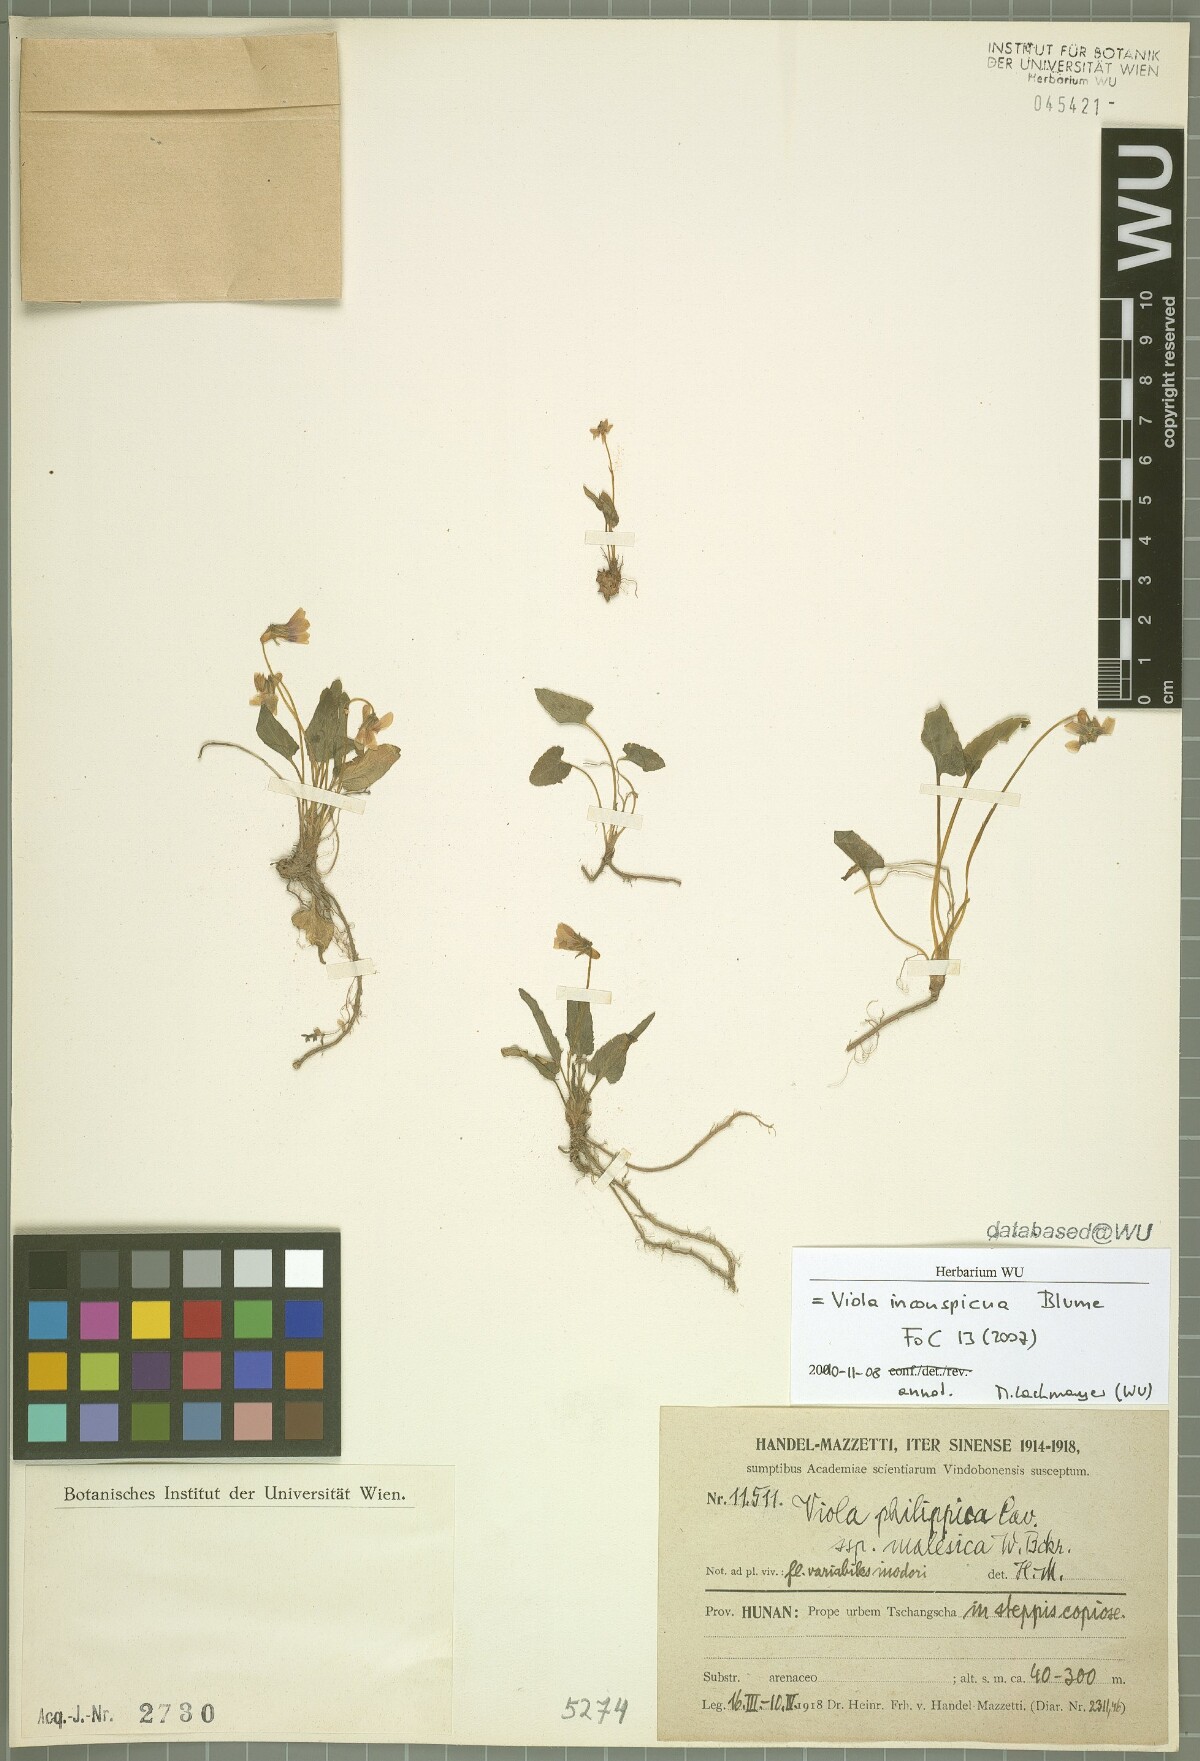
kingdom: Plantae
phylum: Tracheophyta
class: Magnoliopsida
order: Malpighiales
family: Violaceae
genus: Viola
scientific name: Viola inconspicua
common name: Long sepal violet
